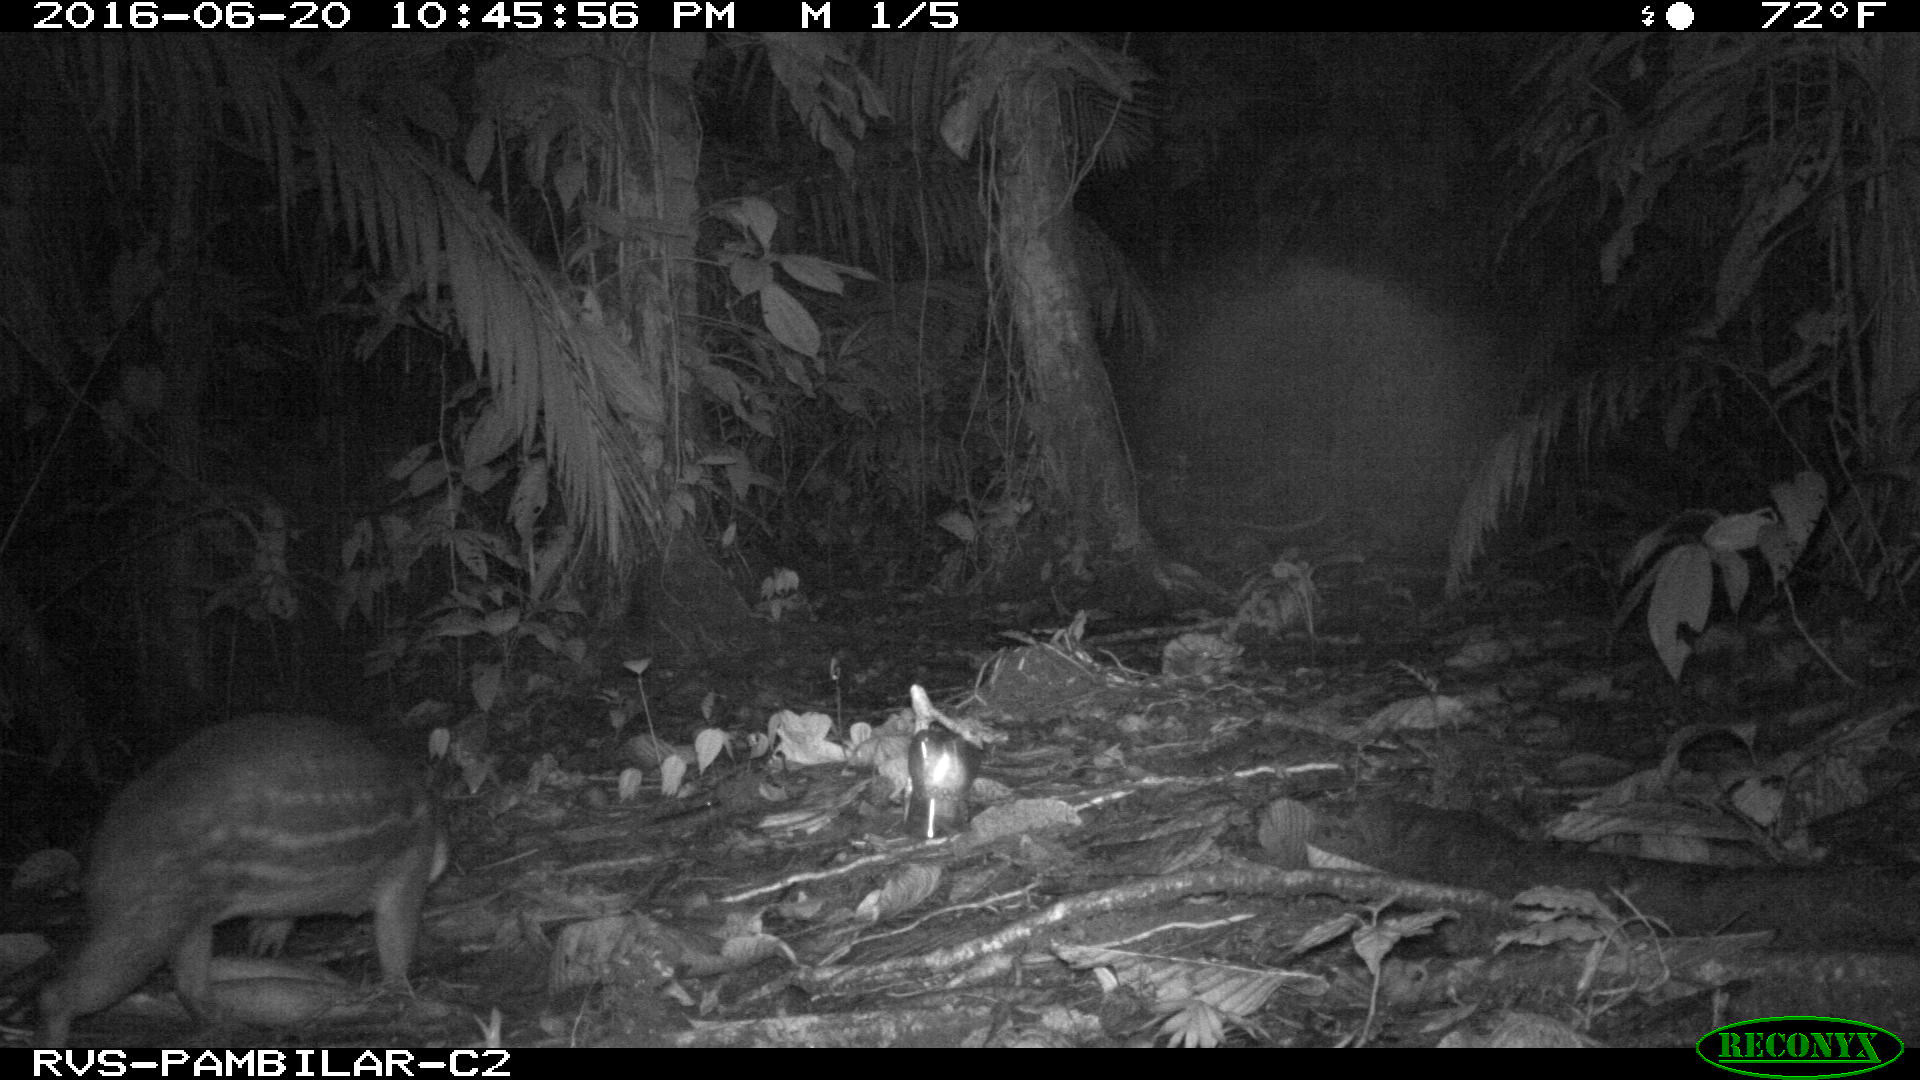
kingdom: Animalia
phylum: Chordata
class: Mammalia
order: Rodentia
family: Cuniculidae
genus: Cuniculus
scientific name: Cuniculus paca
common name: Lowland paca
